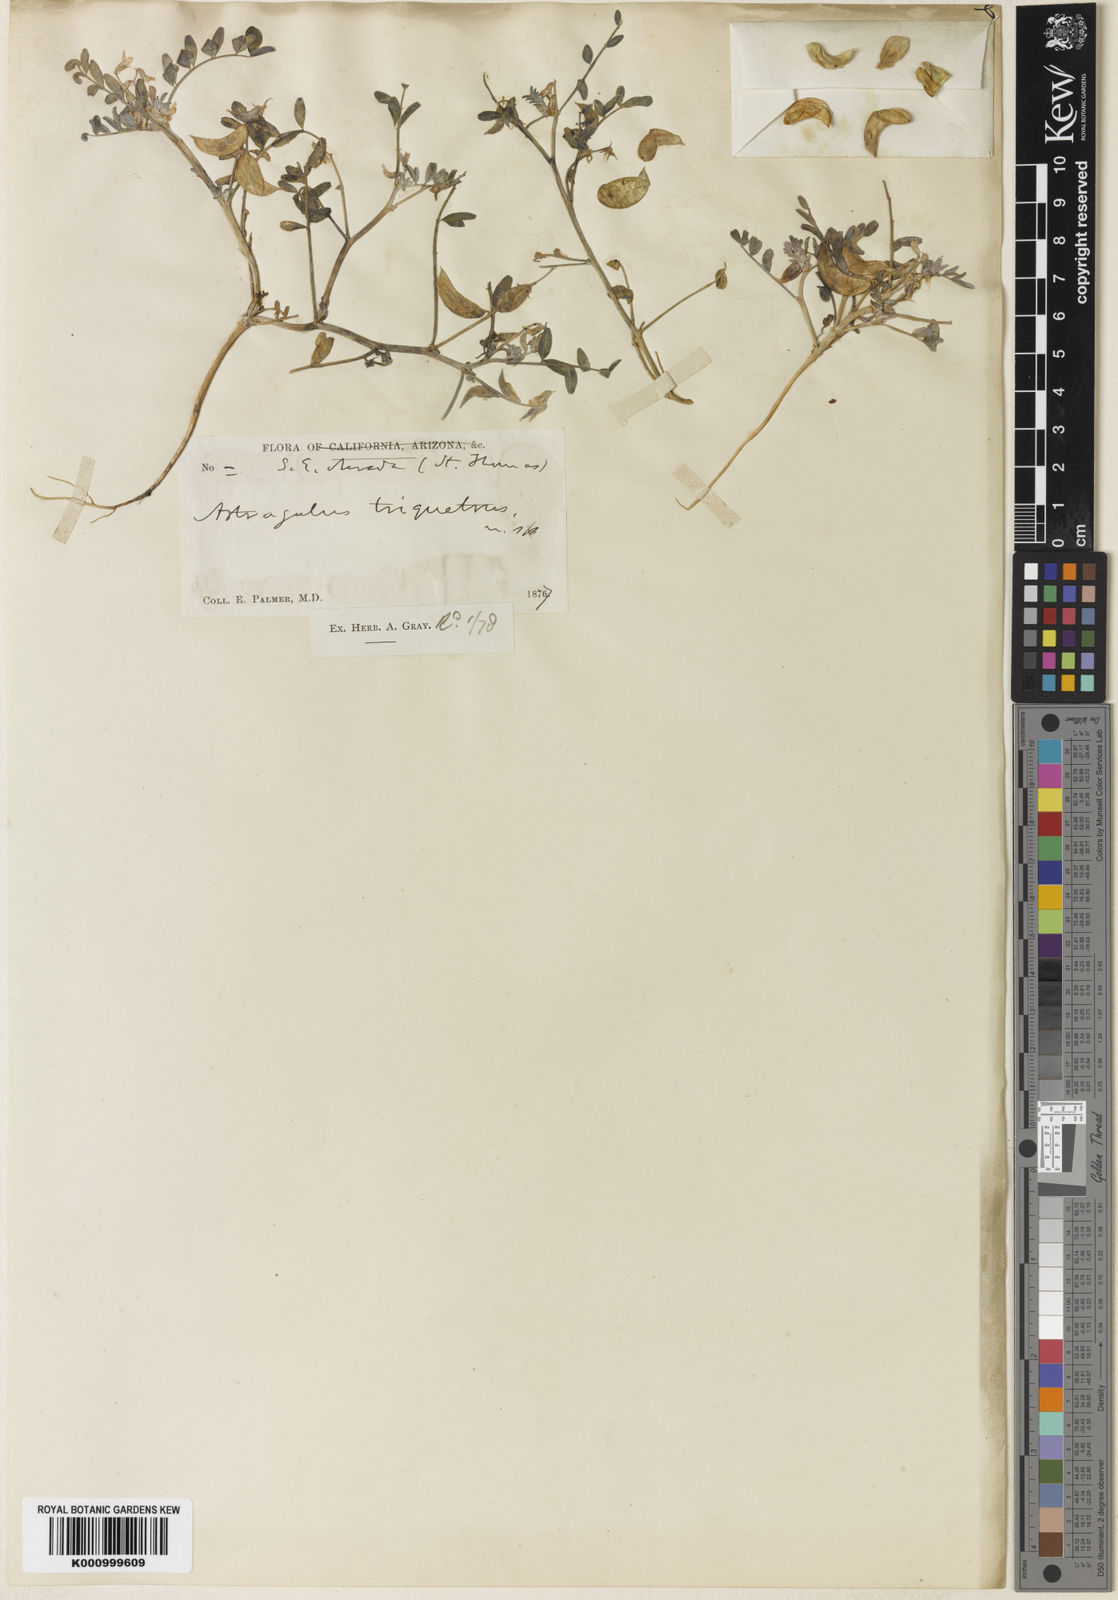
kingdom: Plantae
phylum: Tracheophyta
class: Magnoliopsida
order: Fabales
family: Fabaceae
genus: Astragalus
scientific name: Astragalus geyeri
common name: Geyer's milkvetch
